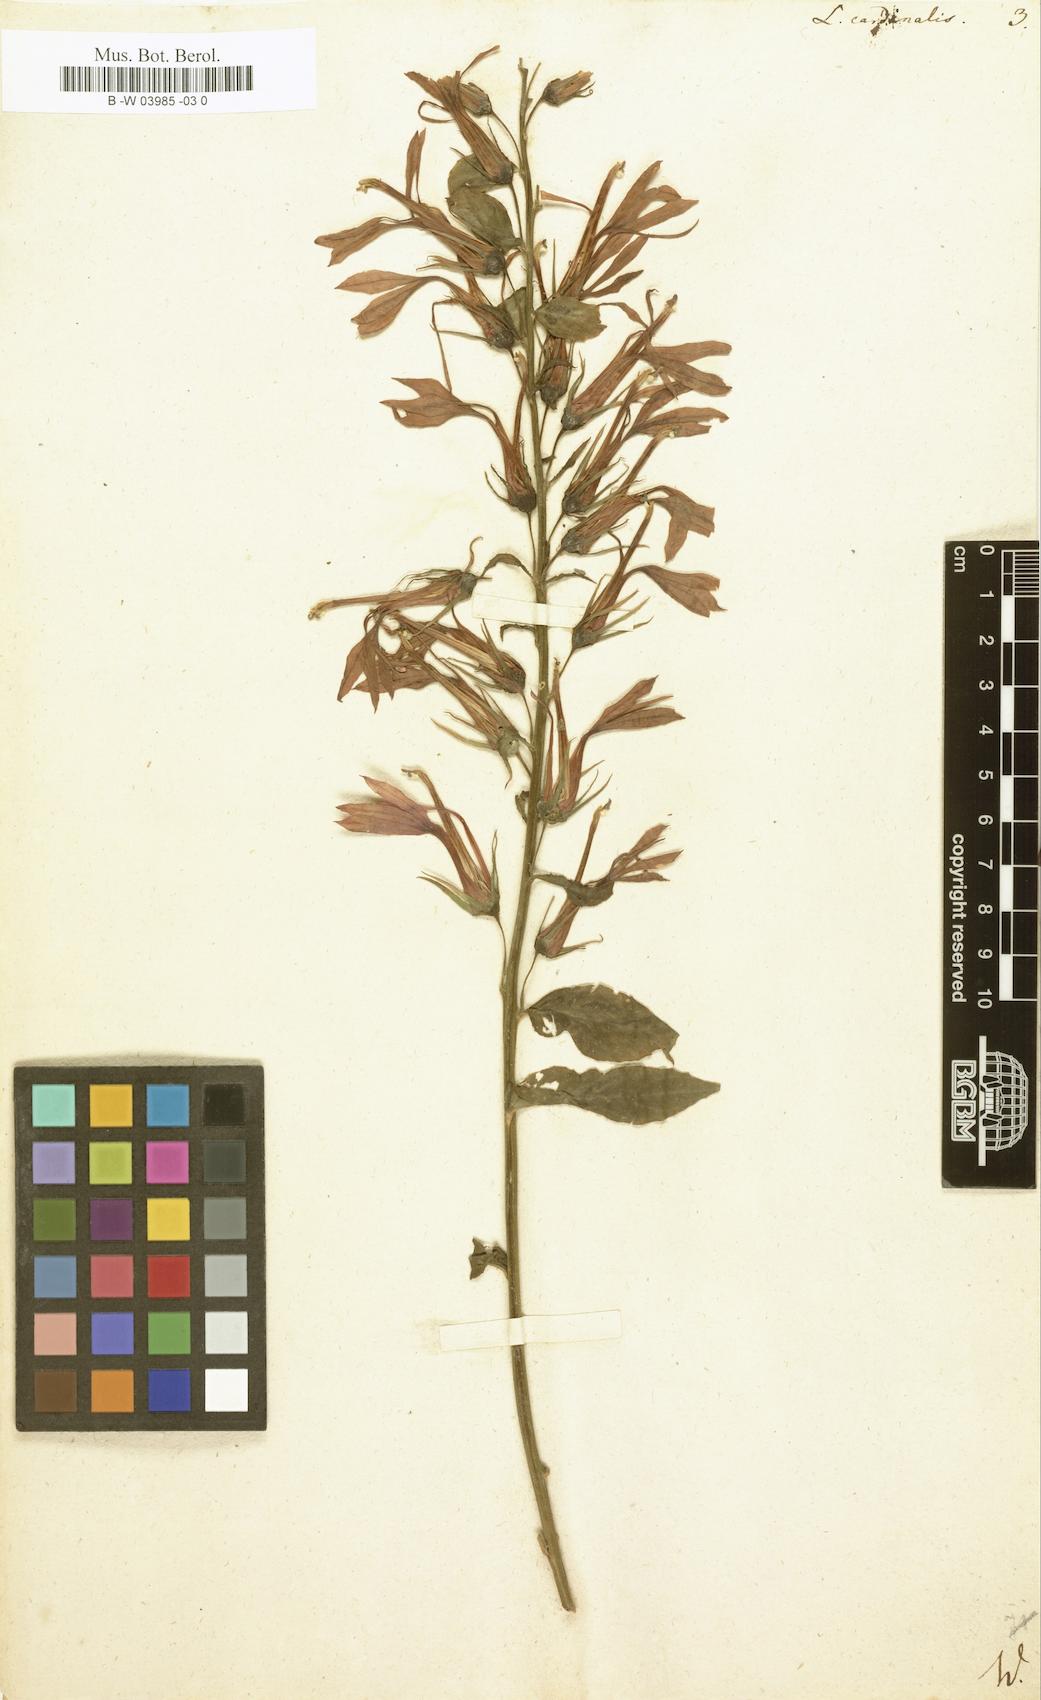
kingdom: Plantae
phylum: Tracheophyta
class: Magnoliopsida
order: Asterales
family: Campanulaceae
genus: Lobelia
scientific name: Lobelia cardinalis
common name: Cardinal flower
